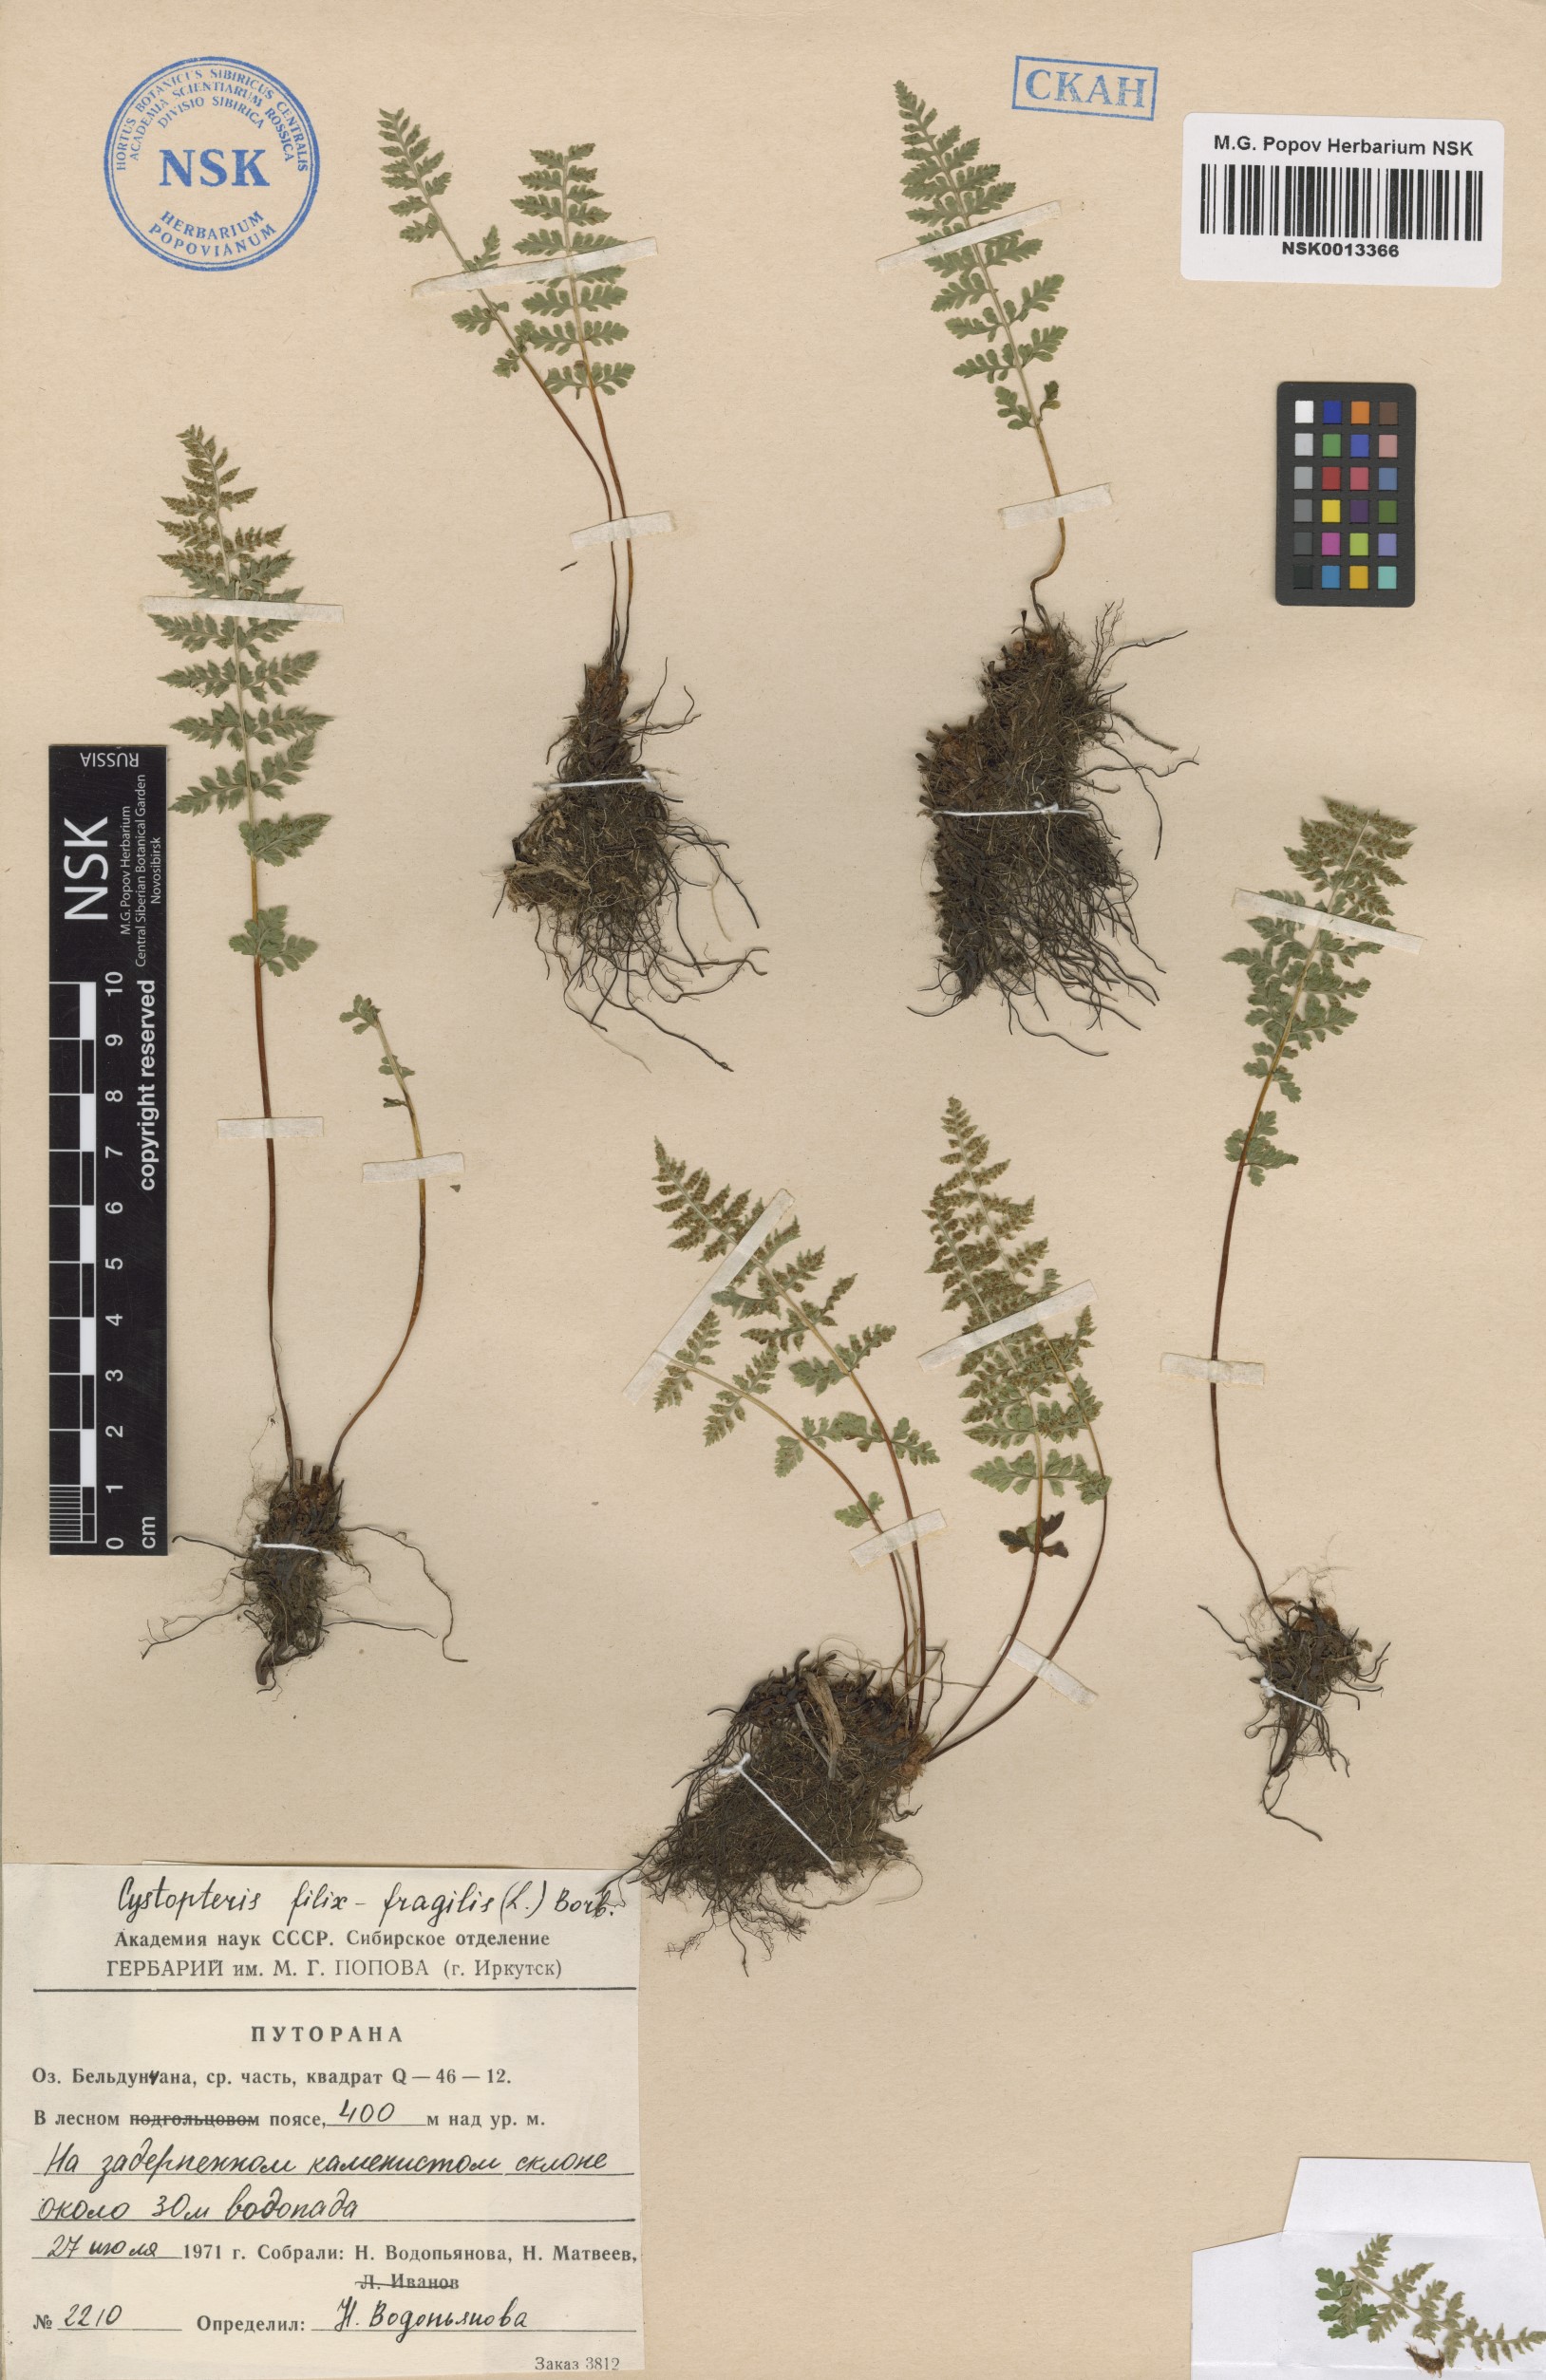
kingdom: Plantae
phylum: Tracheophyta
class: Polypodiopsida
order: Polypodiales
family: Cystopteridaceae
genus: Cystopteris
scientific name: Cystopteris fragilis
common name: Brittle bladder fern
